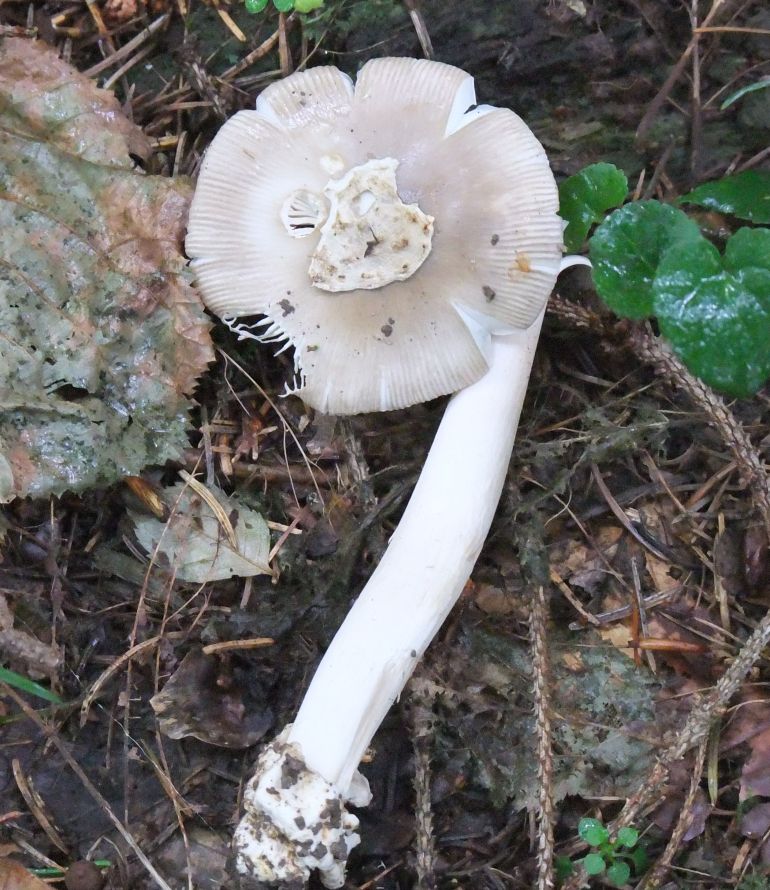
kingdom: Fungi
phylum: Basidiomycota
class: Agaricomycetes
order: Agaricales
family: Amanitaceae
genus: Amanita
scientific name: Amanita vaginata
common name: grå kam-fluesvamp
